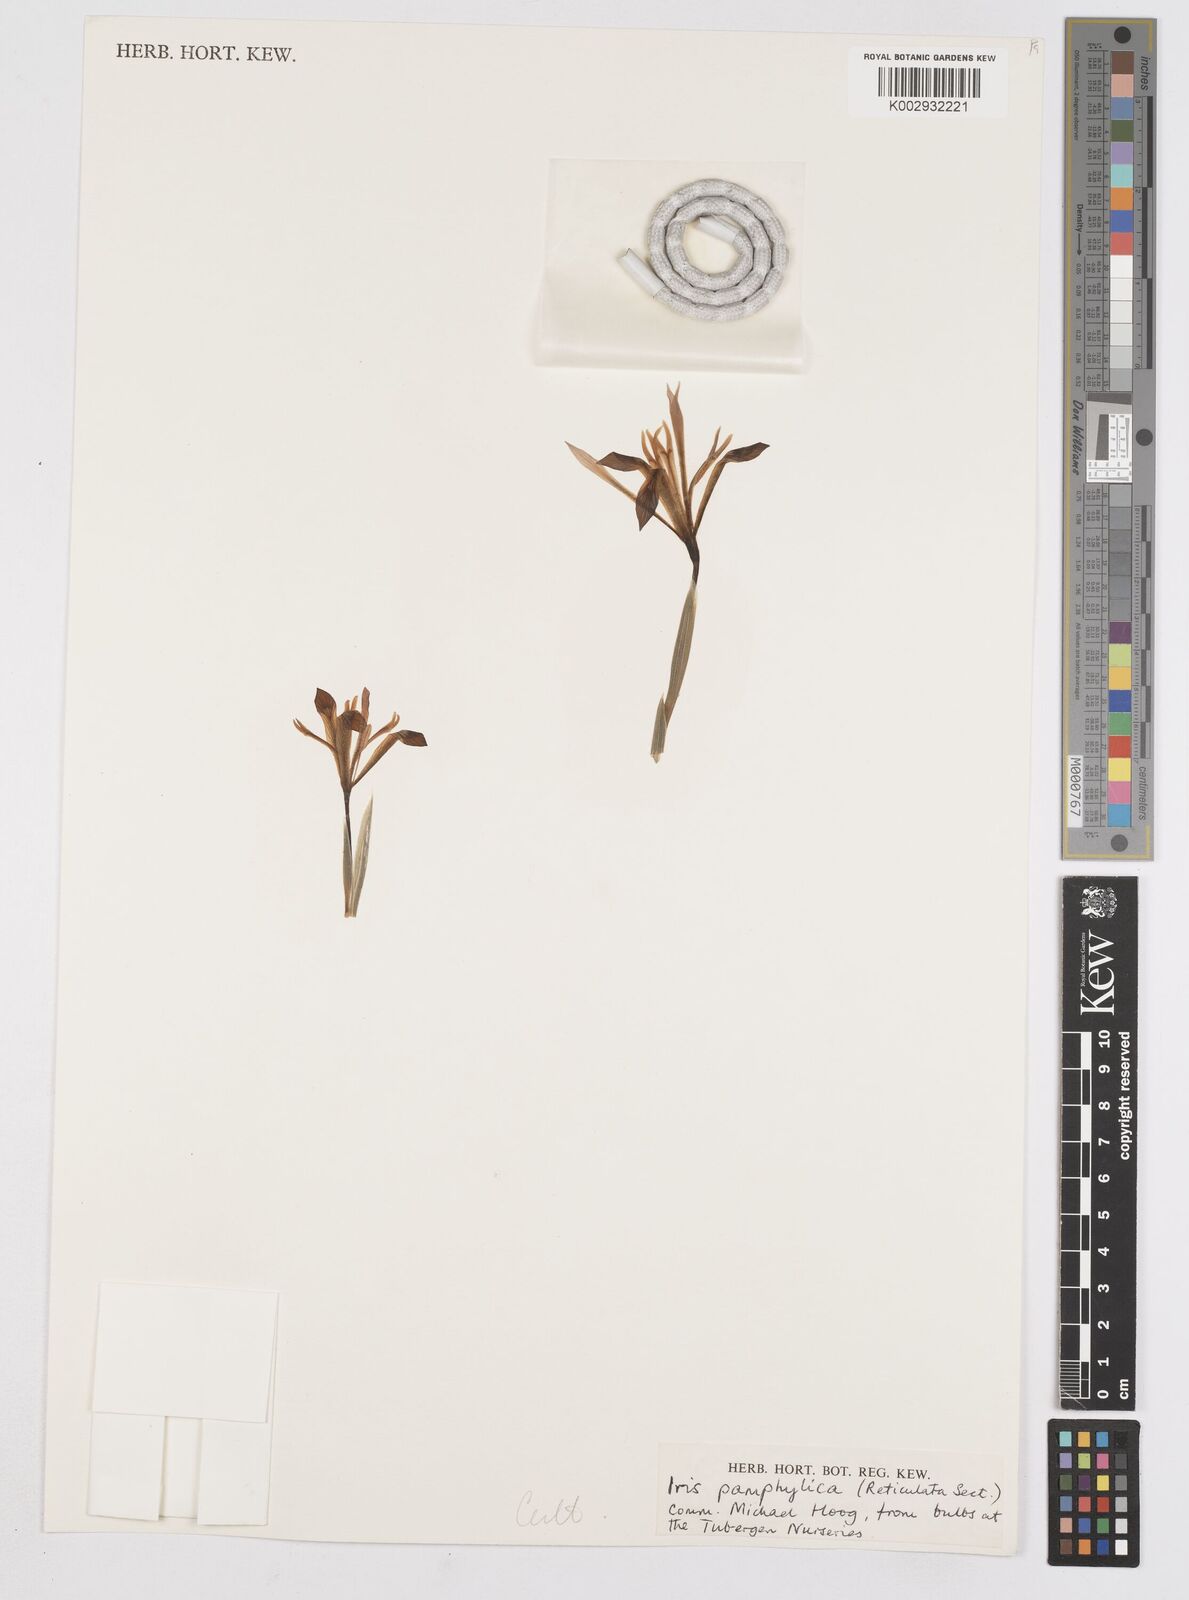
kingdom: Plantae
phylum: Tracheophyta
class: Liliopsida
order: Asparagales
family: Iridaceae
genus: Iris
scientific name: Iris pamphylica
